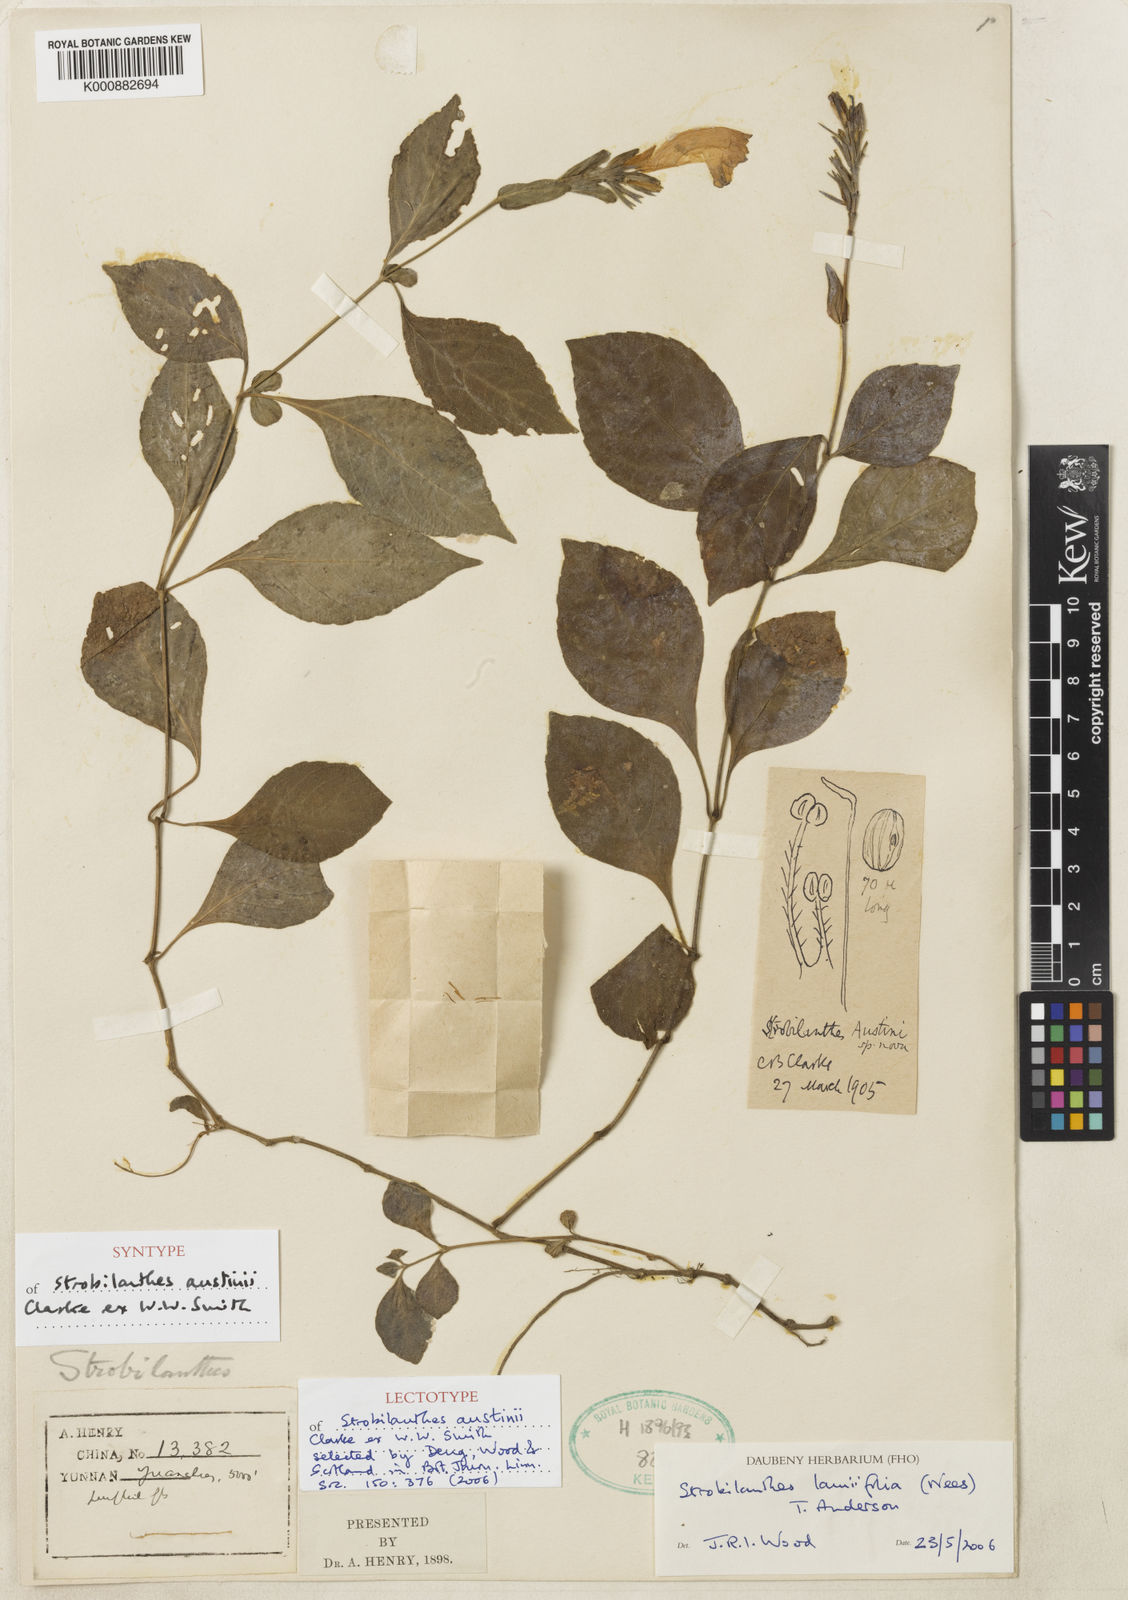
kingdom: Plantae
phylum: Tracheophyta
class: Magnoliopsida
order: Lamiales
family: Acanthaceae
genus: Strobilanthes
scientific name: Strobilanthes lamiifolia
